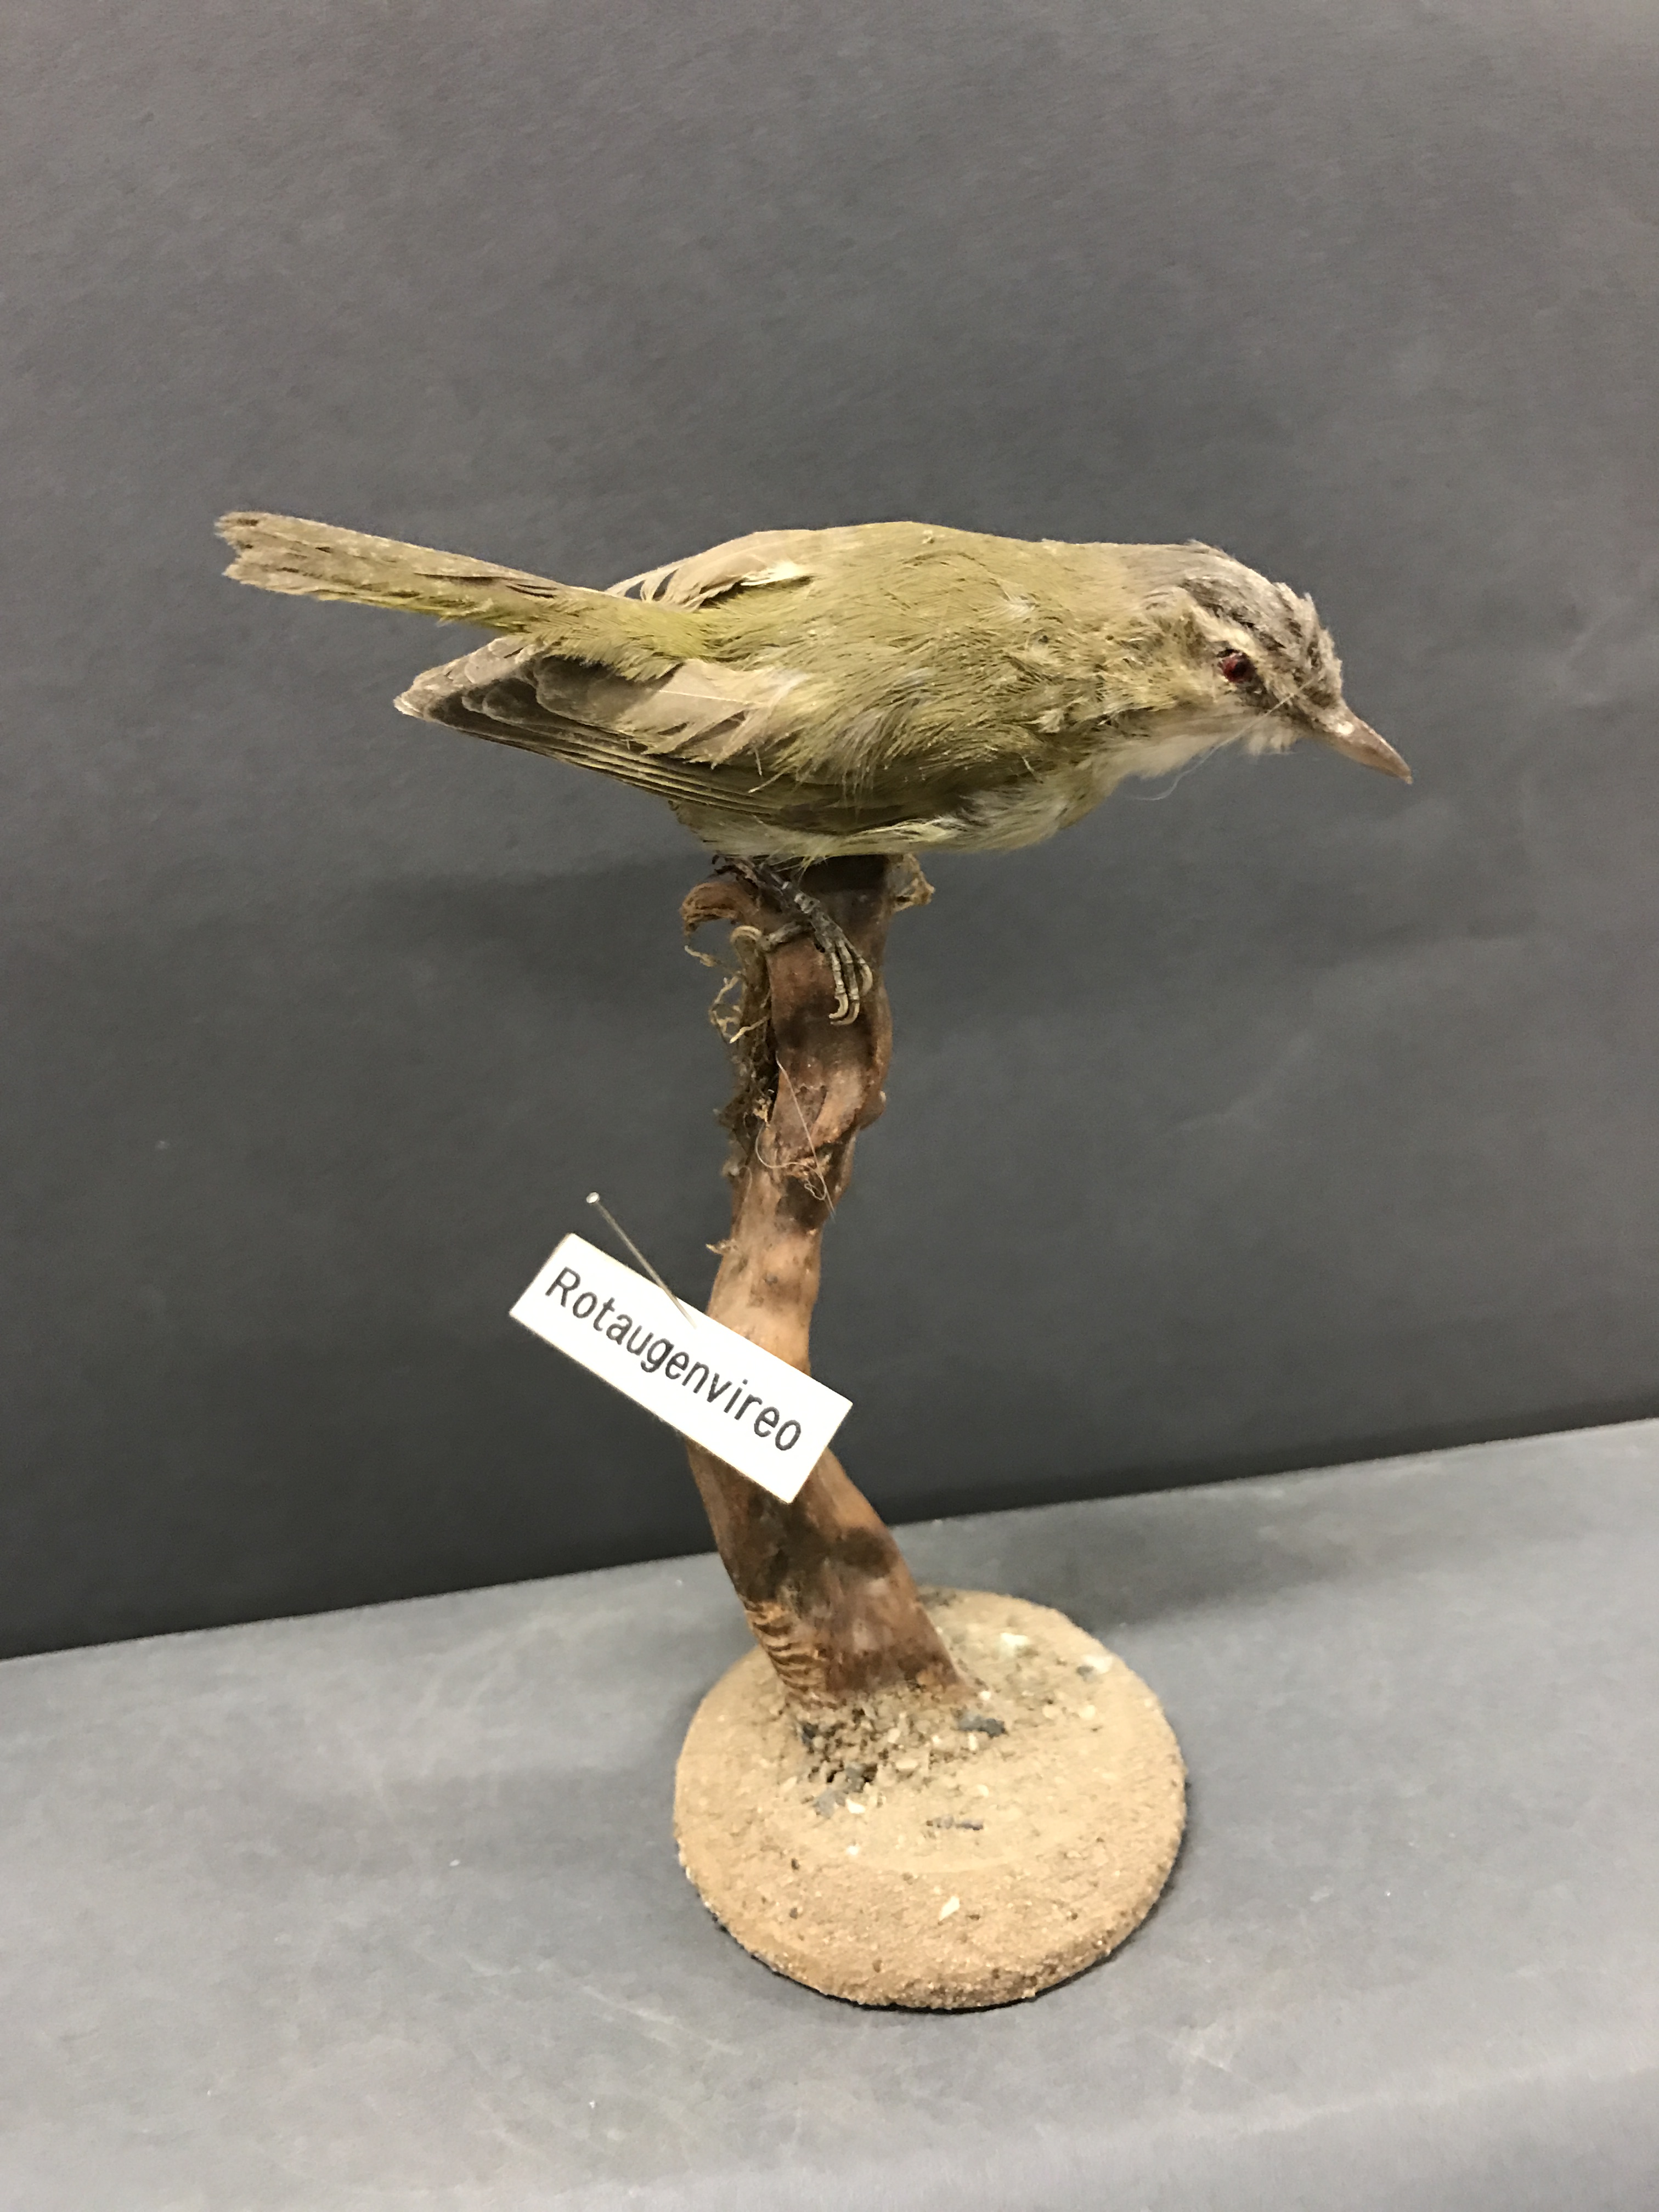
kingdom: Animalia
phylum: Chordata
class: Aves
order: Passeriformes
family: Vireonidae
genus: Vireo
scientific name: Vireo olivaceus
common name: Red-eyed vireo
